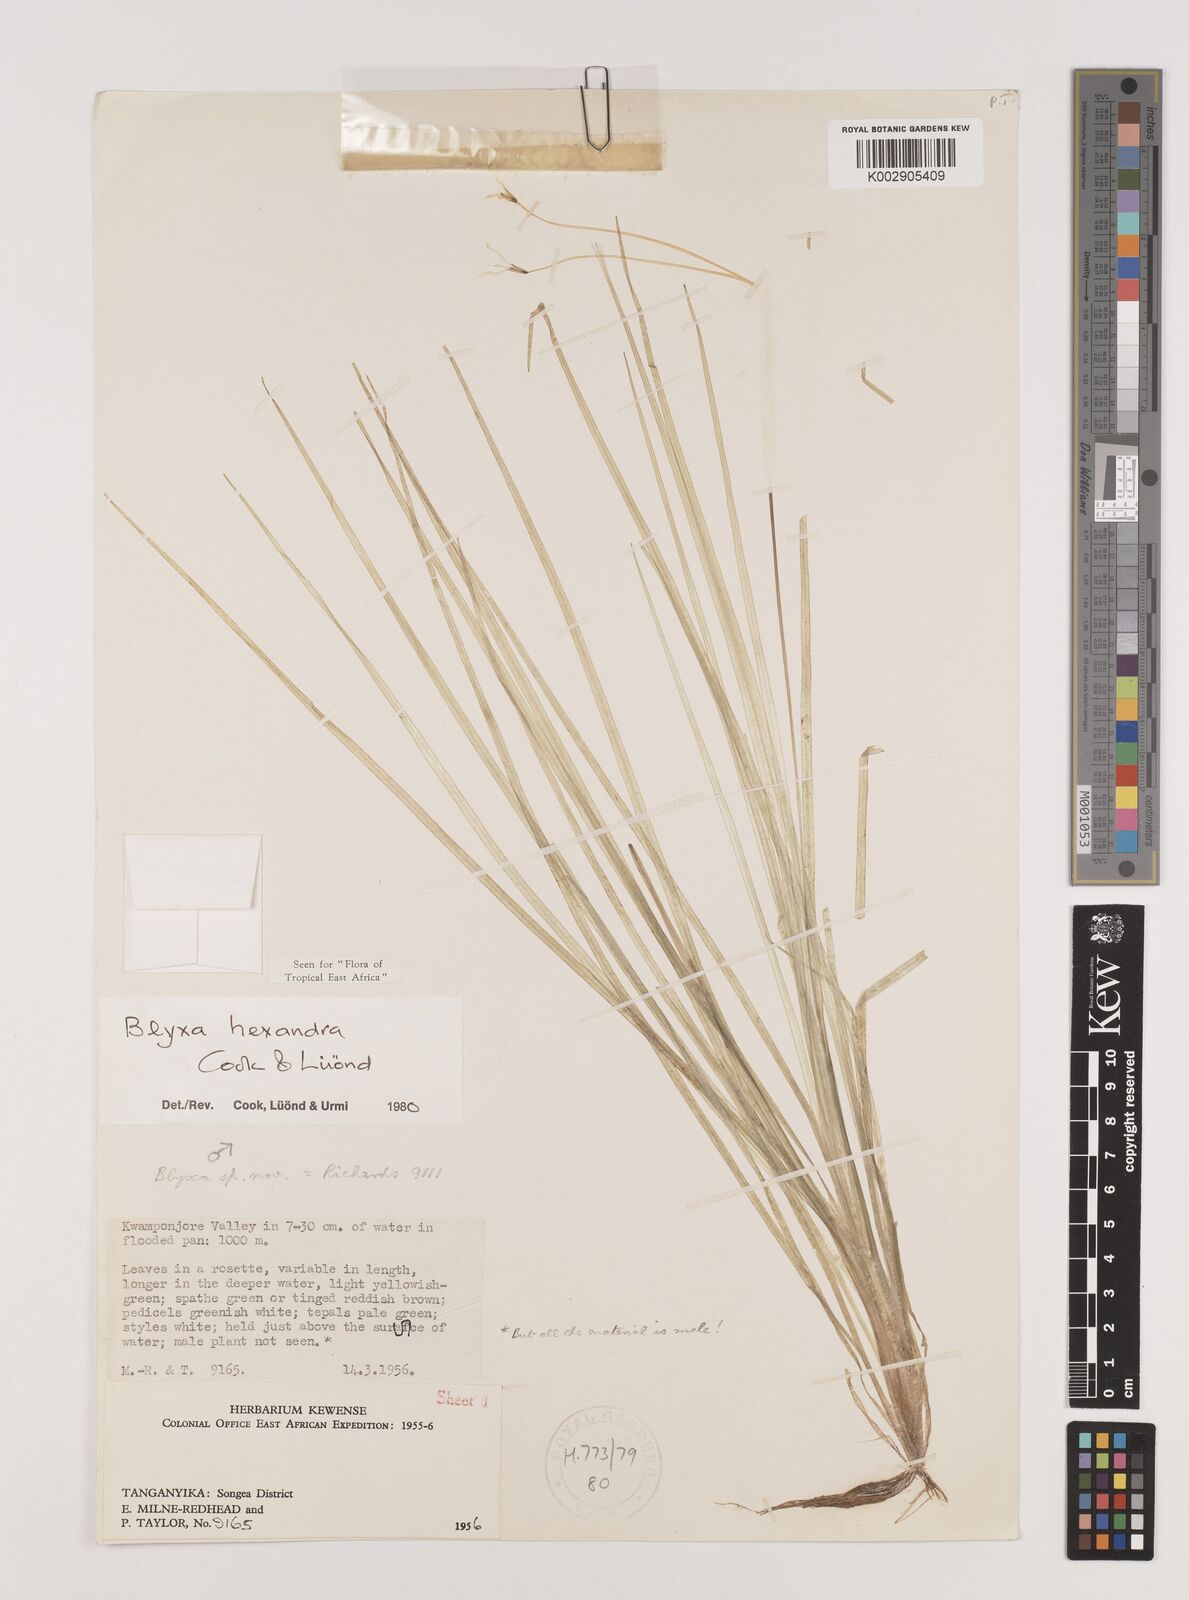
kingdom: Plantae
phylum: Tracheophyta
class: Liliopsida
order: Alismatales
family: Hydrocharitaceae
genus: Blyxa
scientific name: Blyxa hexandra
